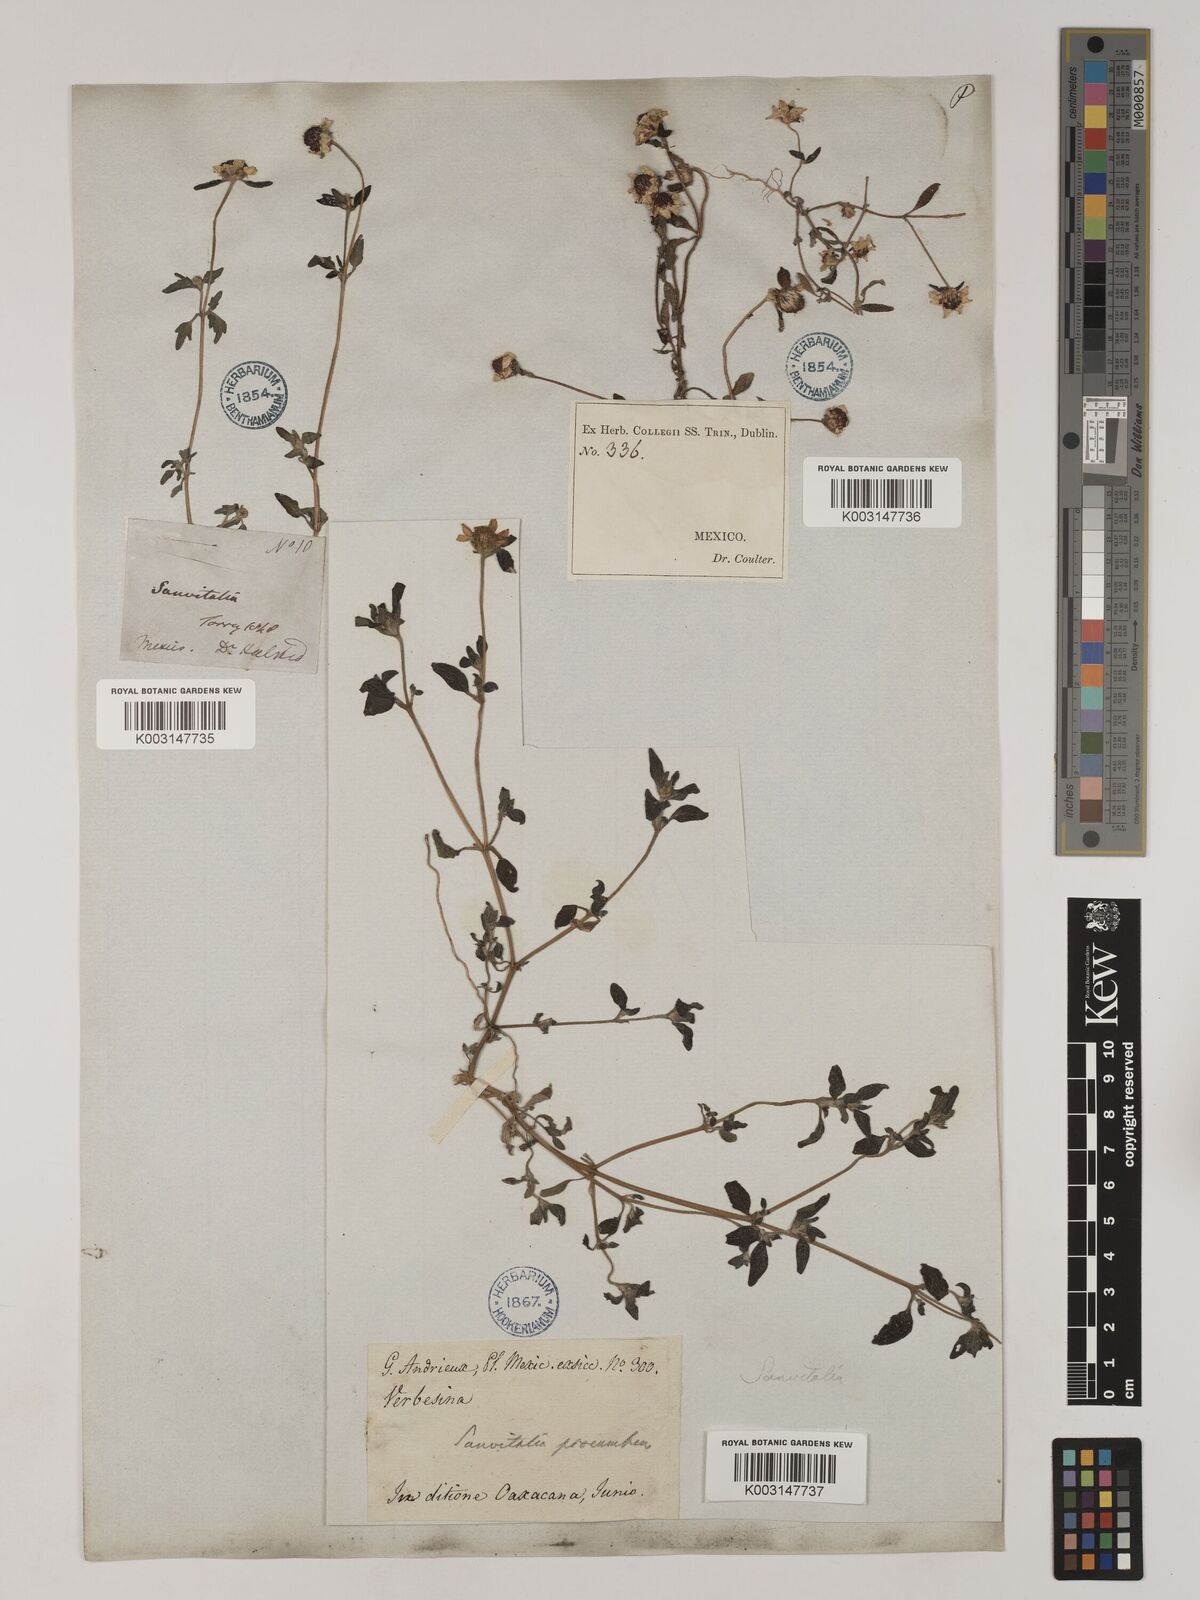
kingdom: Plantae
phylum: Tracheophyta
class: Magnoliopsida
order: Asterales
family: Asteraceae
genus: Sanvitalia
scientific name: Sanvitalia procumbens
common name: Mexican creeping zinnia
